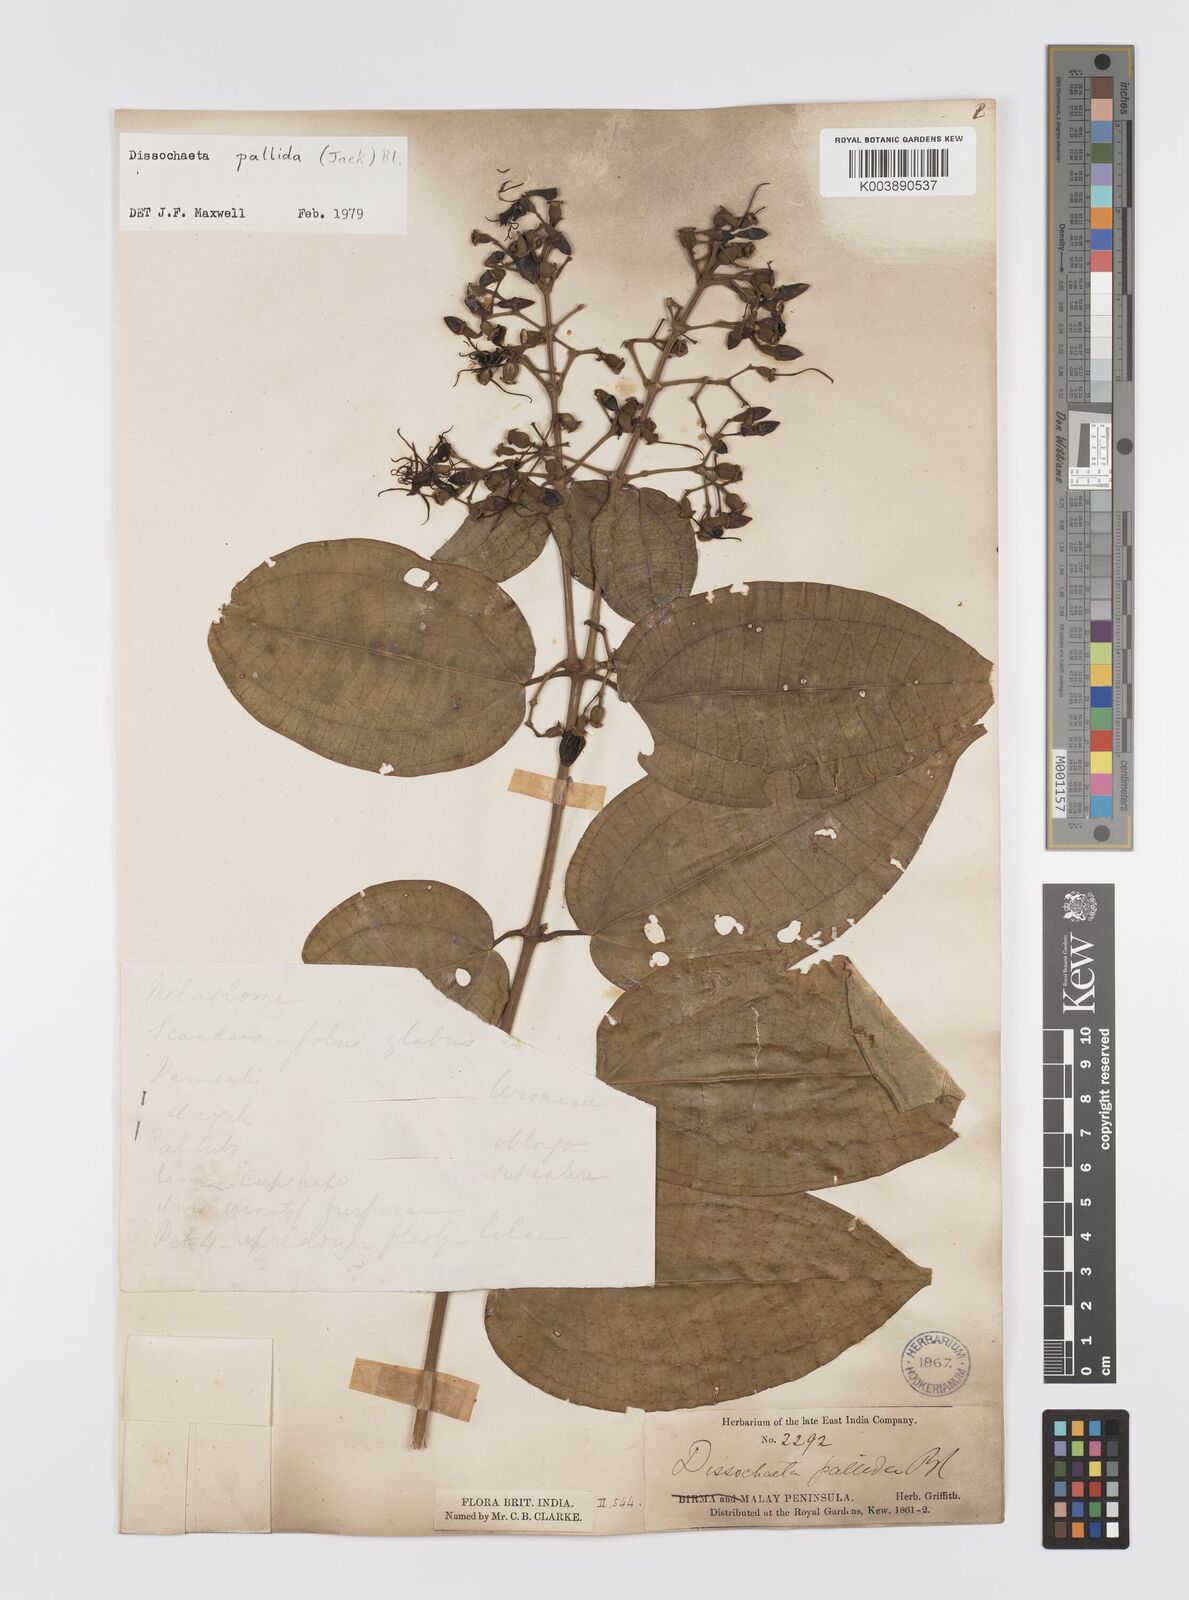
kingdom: Plantae
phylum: Tracheophyta
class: Magnoliopsida
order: Myrtales
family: Melastomataceae
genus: Dissochaeta
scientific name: Dissochaeta pallida
